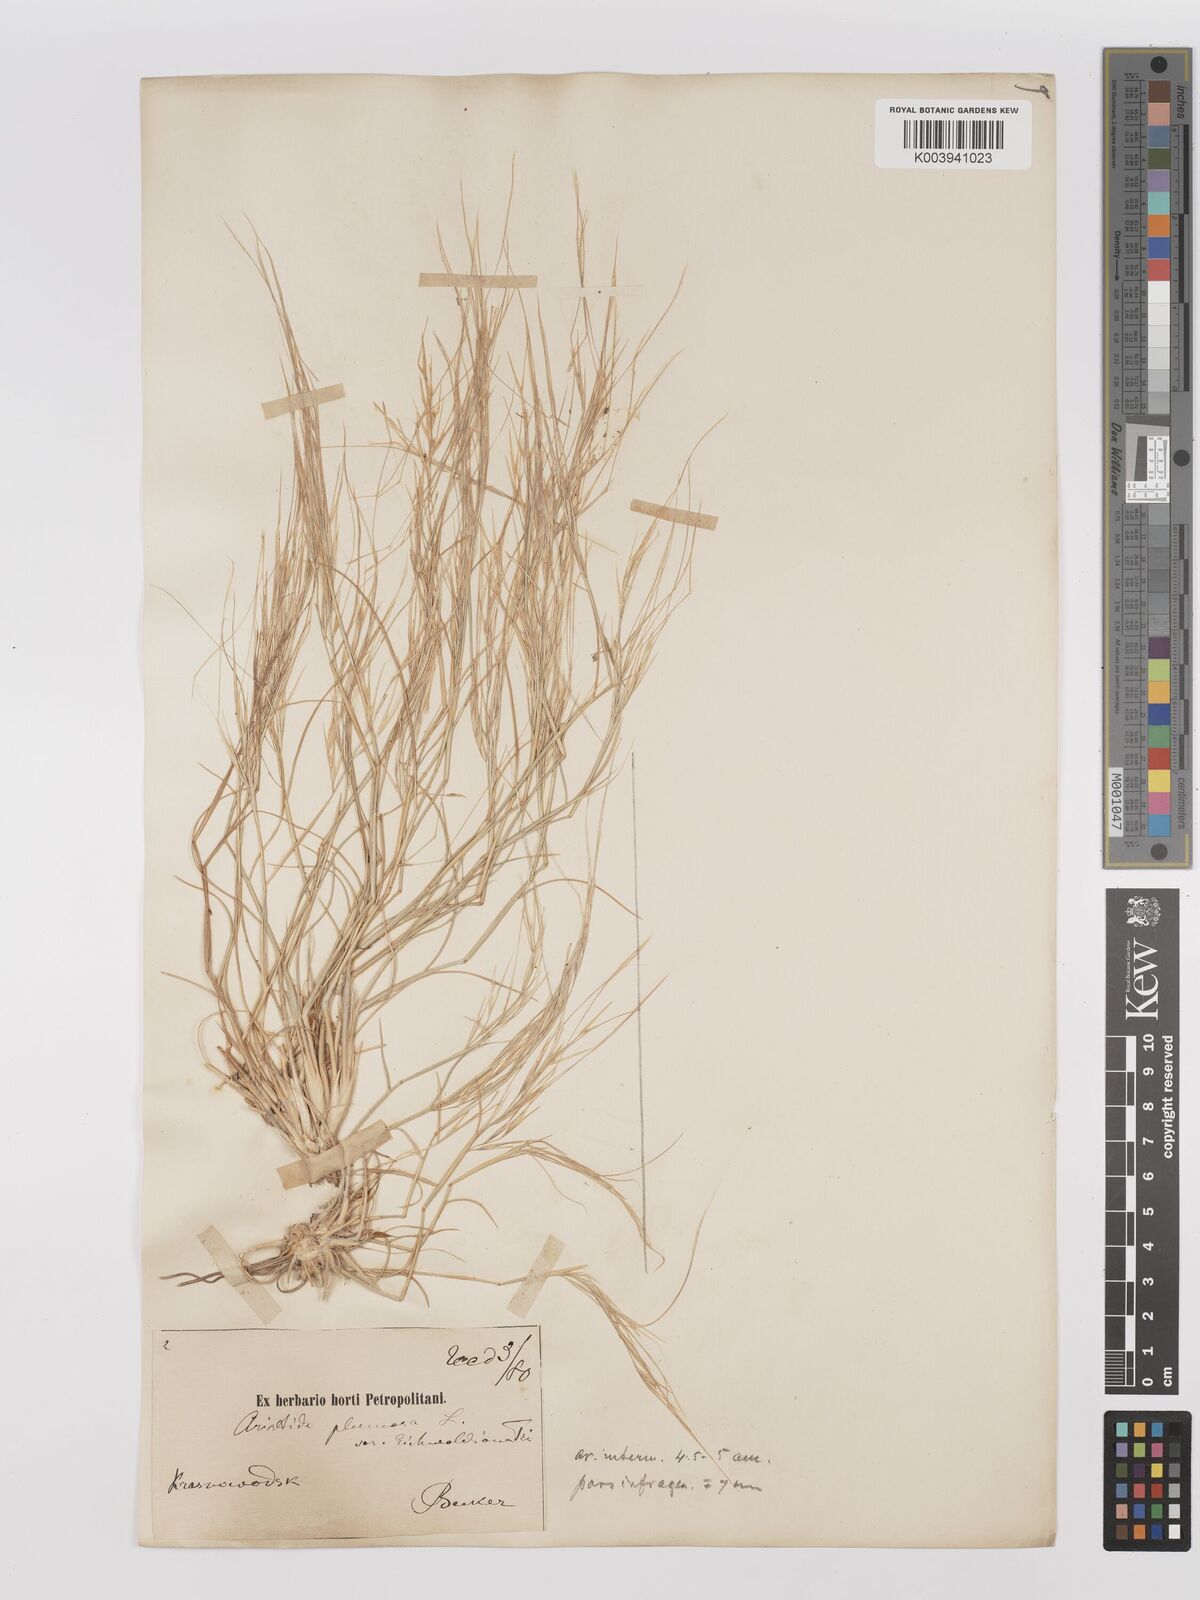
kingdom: Plantae
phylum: Tracheophyta
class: Liliopsida
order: Poales
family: Poaceae
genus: Stipagrostis
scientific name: Stipagrostis plumosa
